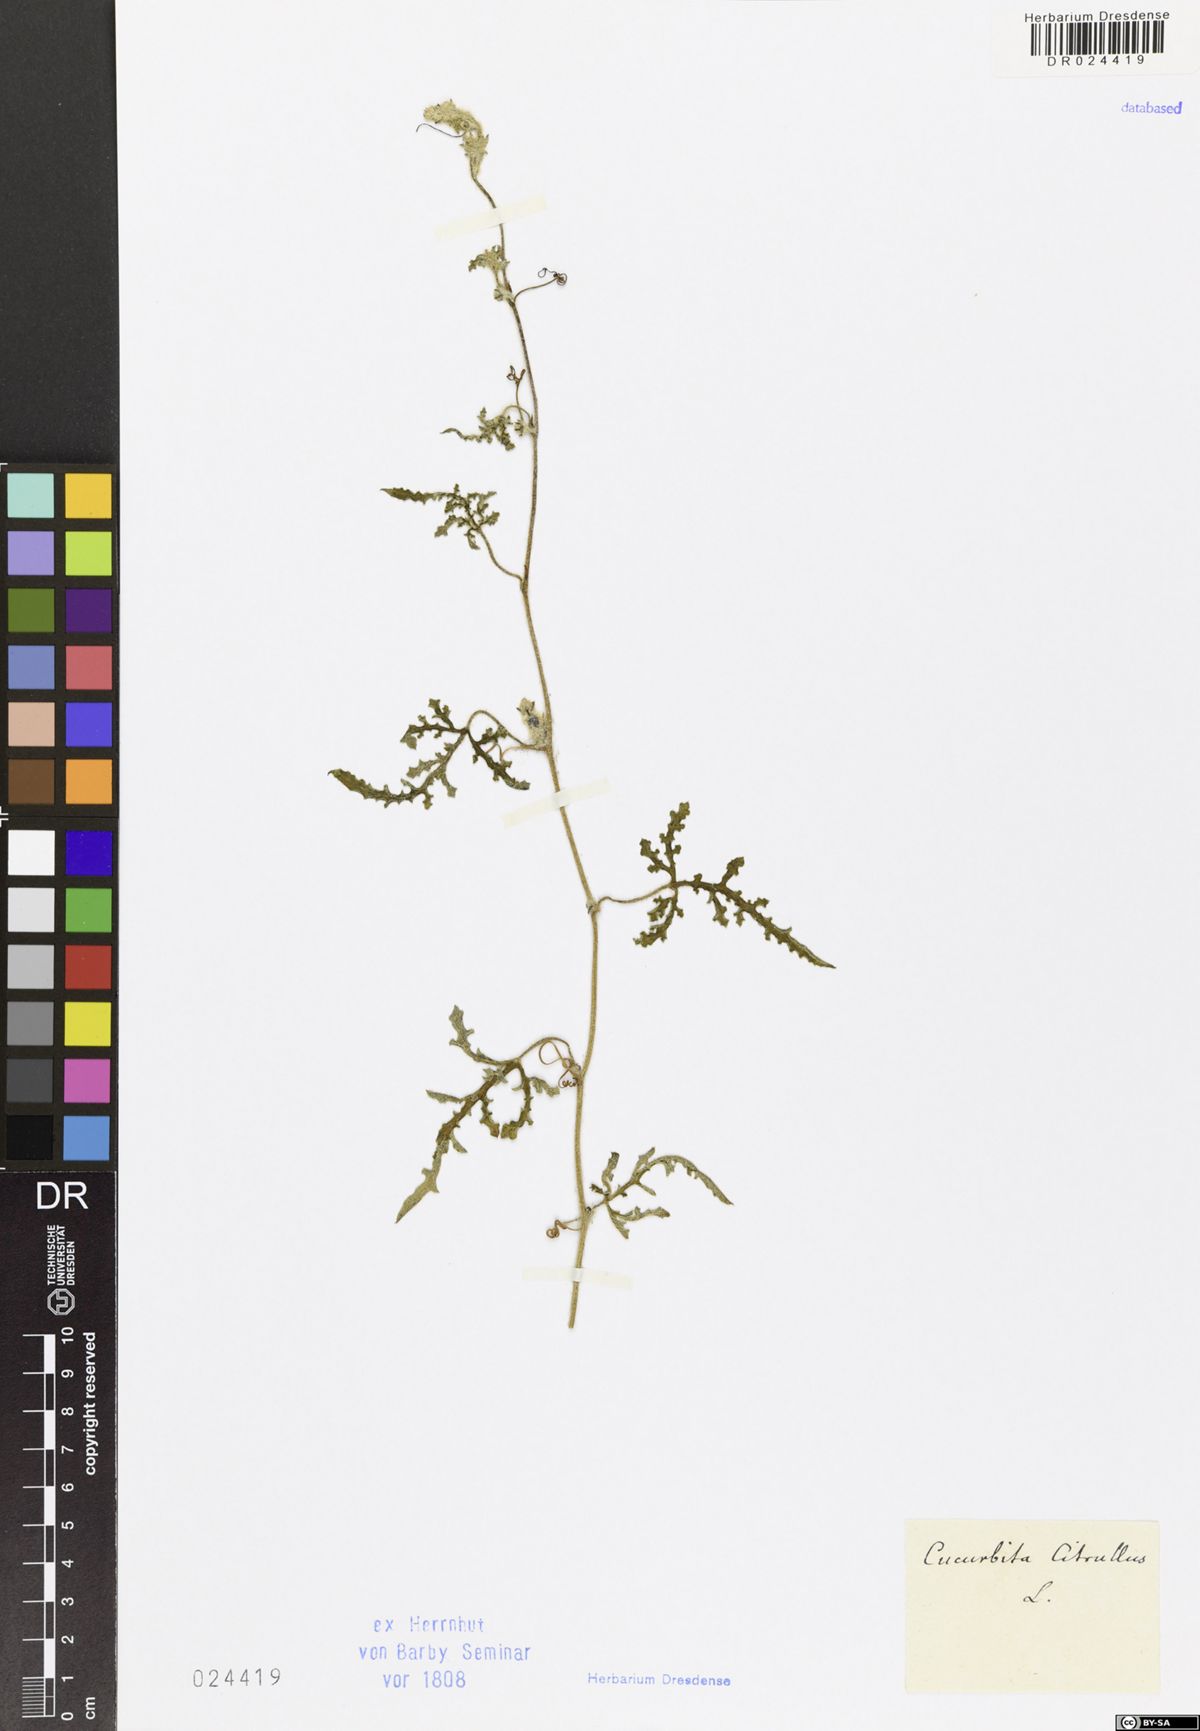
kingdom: Plantae
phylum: Tracheophyta
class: Magnoliopsida
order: Cucurbitales
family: Cucurbitaceae
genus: Citrullus
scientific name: Citrullus lanatus
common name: Watermelon
